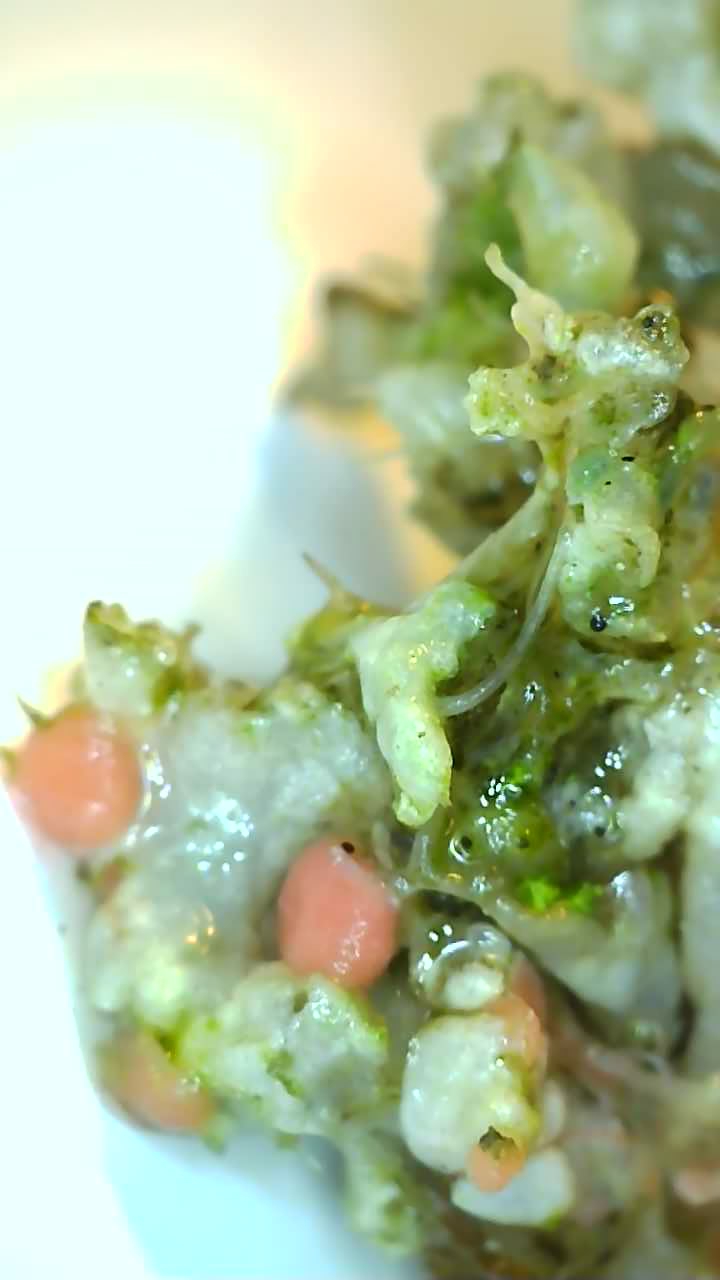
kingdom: Fungi
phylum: Ascomycota
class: Sordariomycetes
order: Hypocreales
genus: Illosporiopsis
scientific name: Illosporiopsis christiansenii
